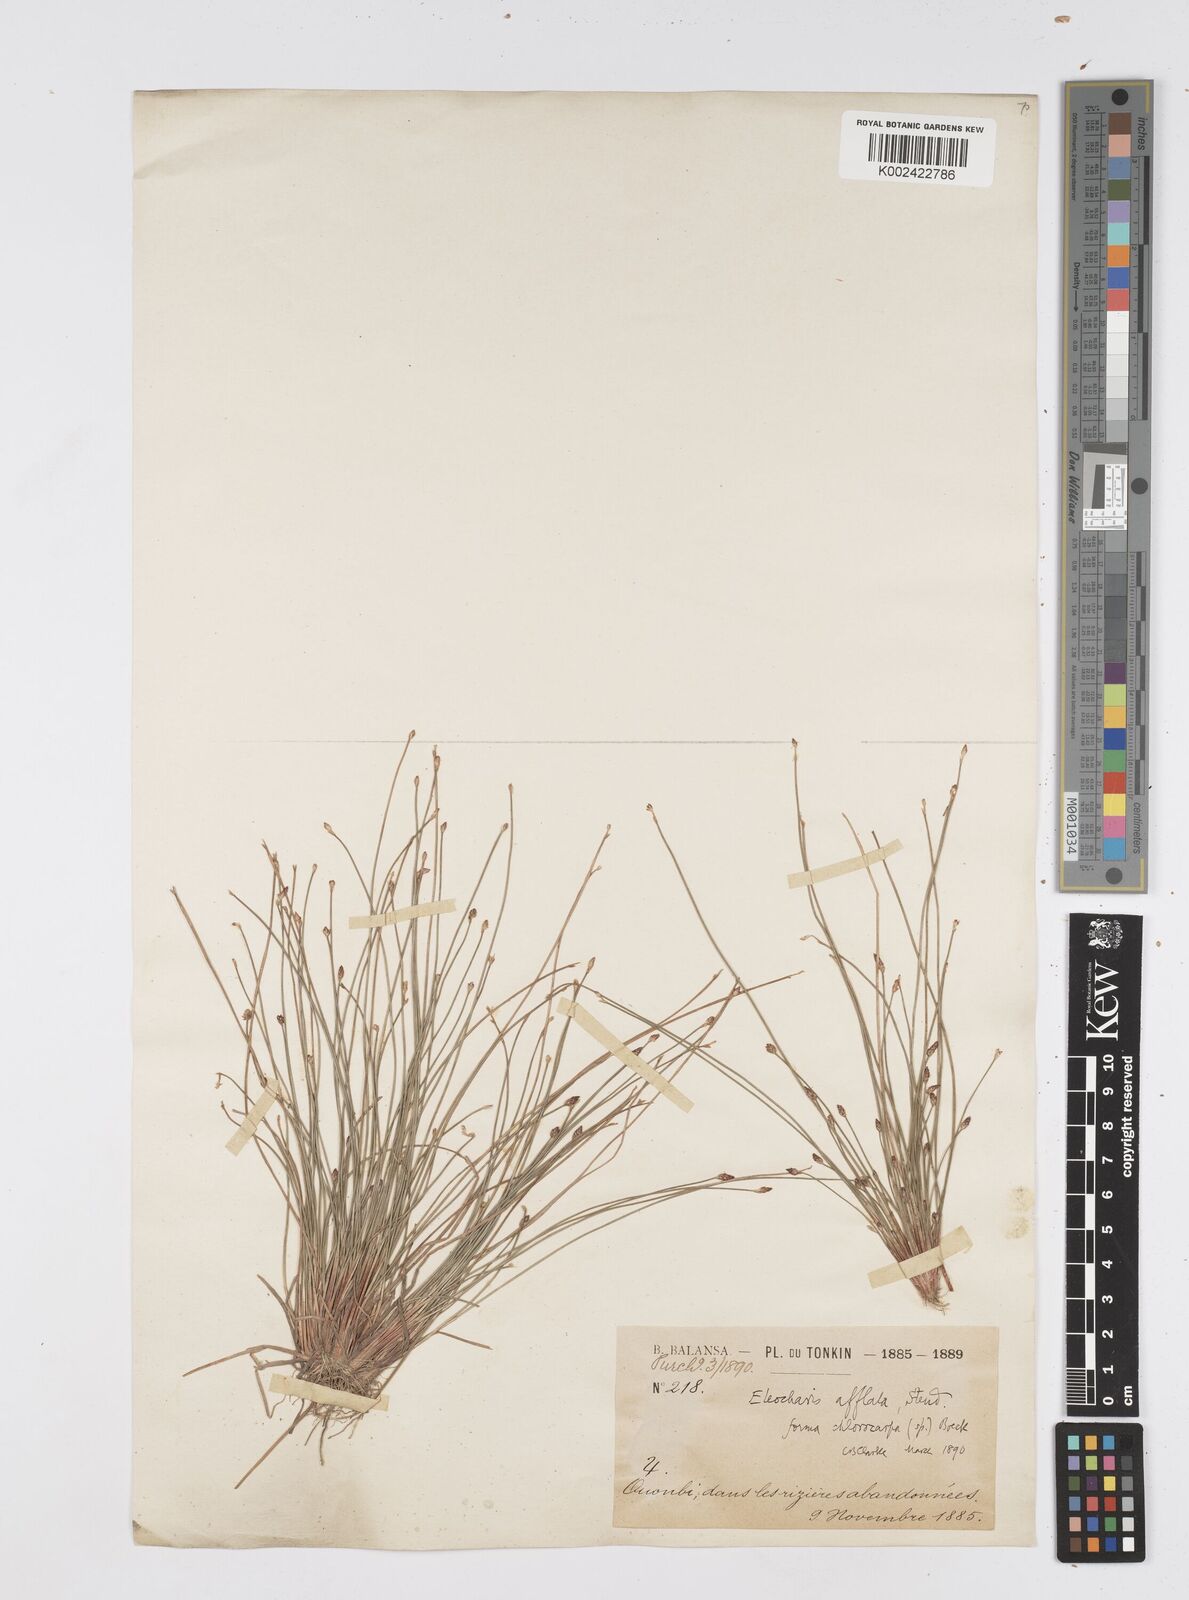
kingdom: Plantae
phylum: Tracheophyta
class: Liliopsida
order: Poales
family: Cyperaceae
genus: Eleocharis
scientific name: Eleocharis pellucida
